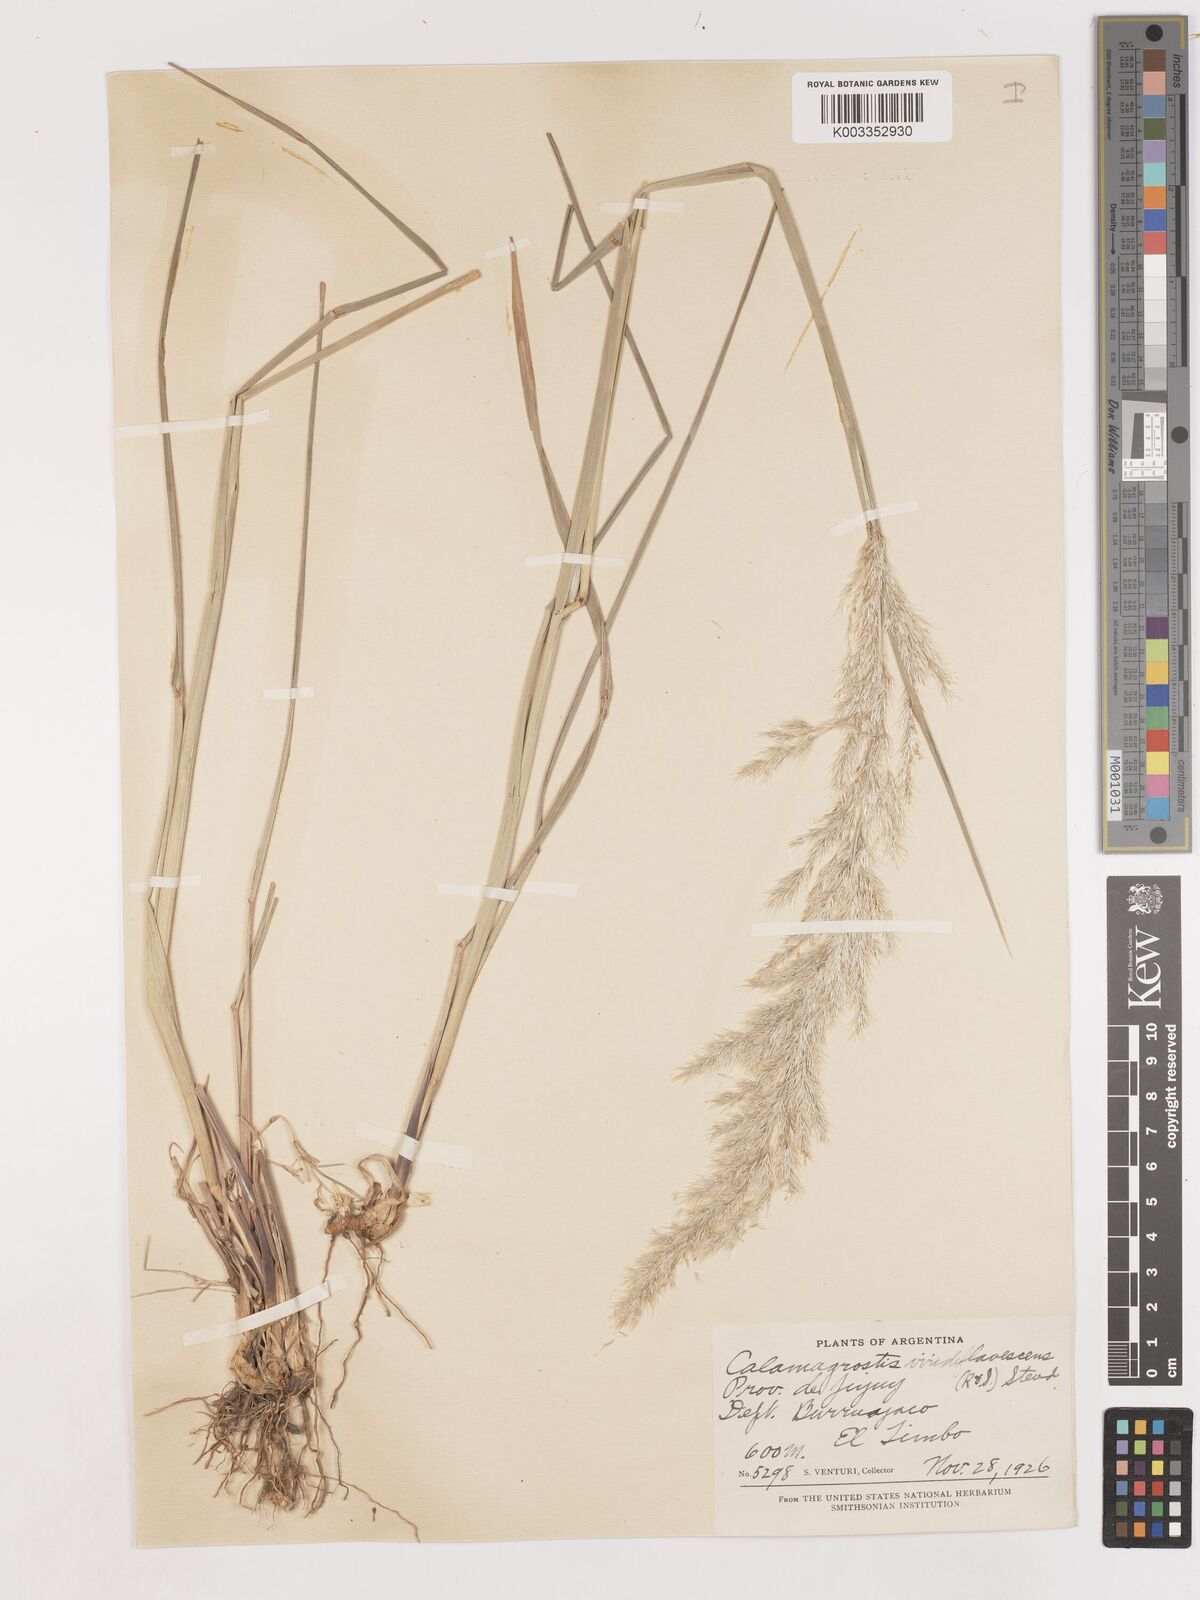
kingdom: Plantae
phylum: Tracheophyta
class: Liliopsida
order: Poales
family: Poaceae
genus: Cinnagrostis
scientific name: Cinnagrostis viridiflavescens
